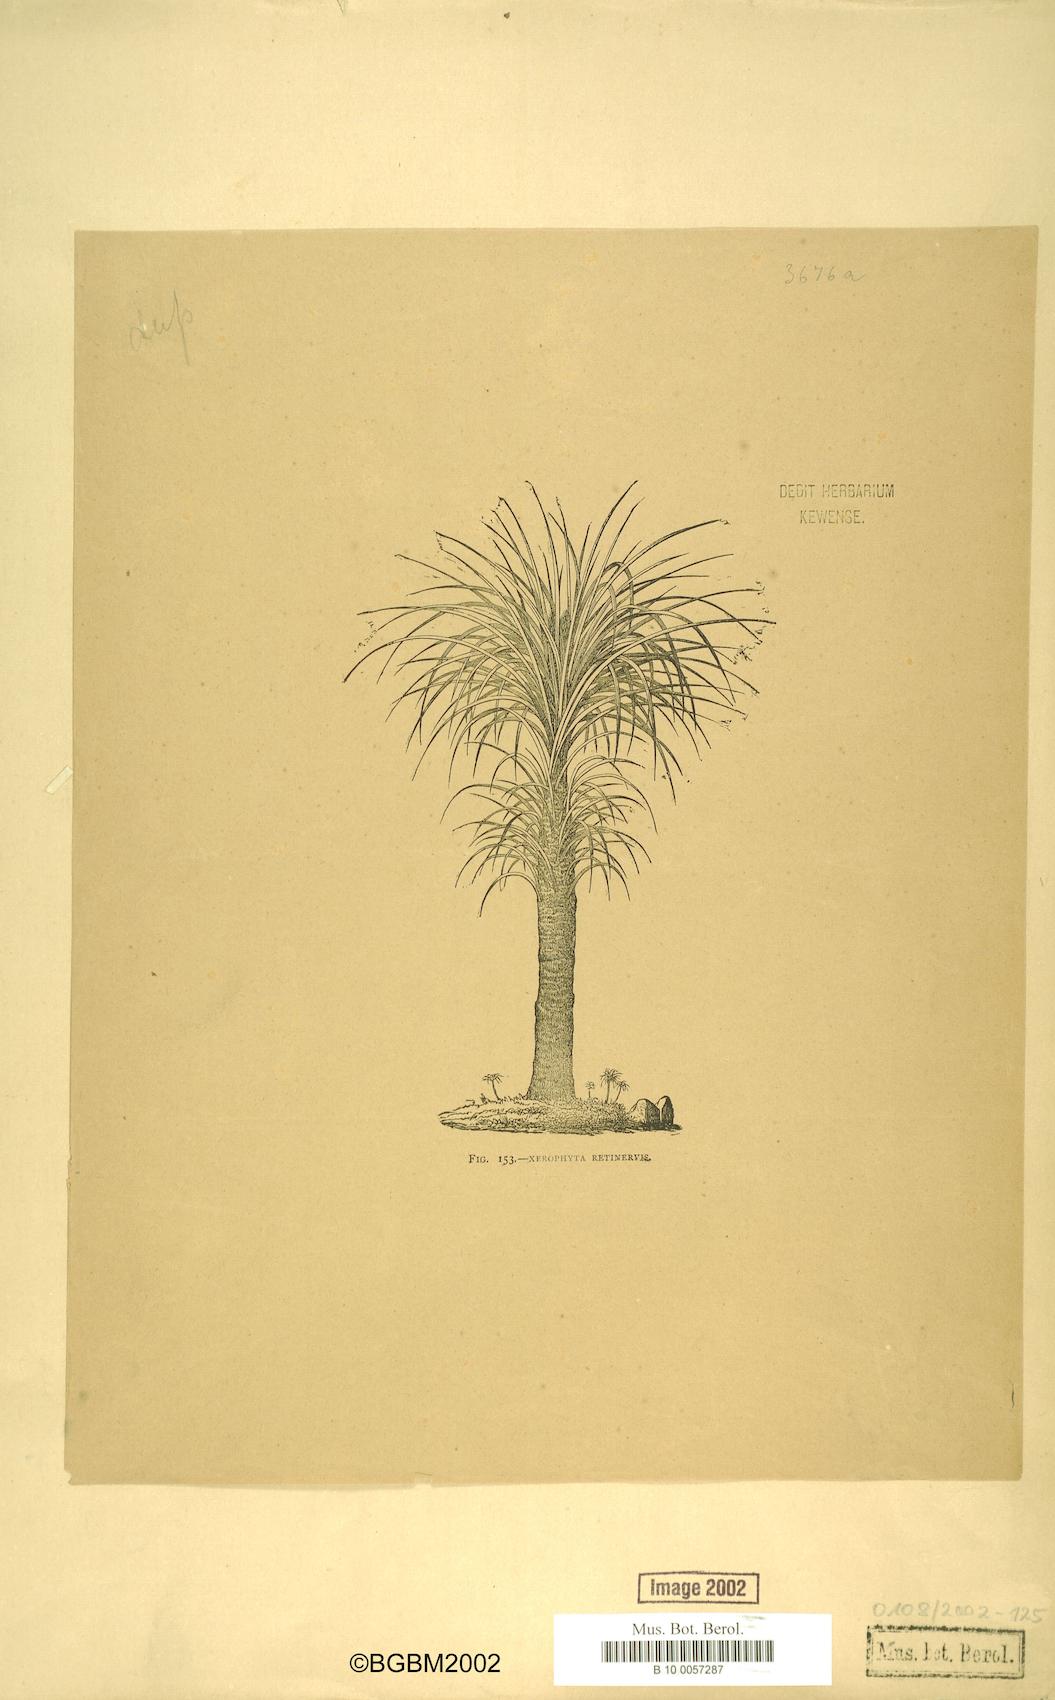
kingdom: Plantae
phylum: Tracheophyta
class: Liliopsida
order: Pandanales
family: Velloziaceae
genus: Xerophyta
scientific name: Xerophyta retinervis
